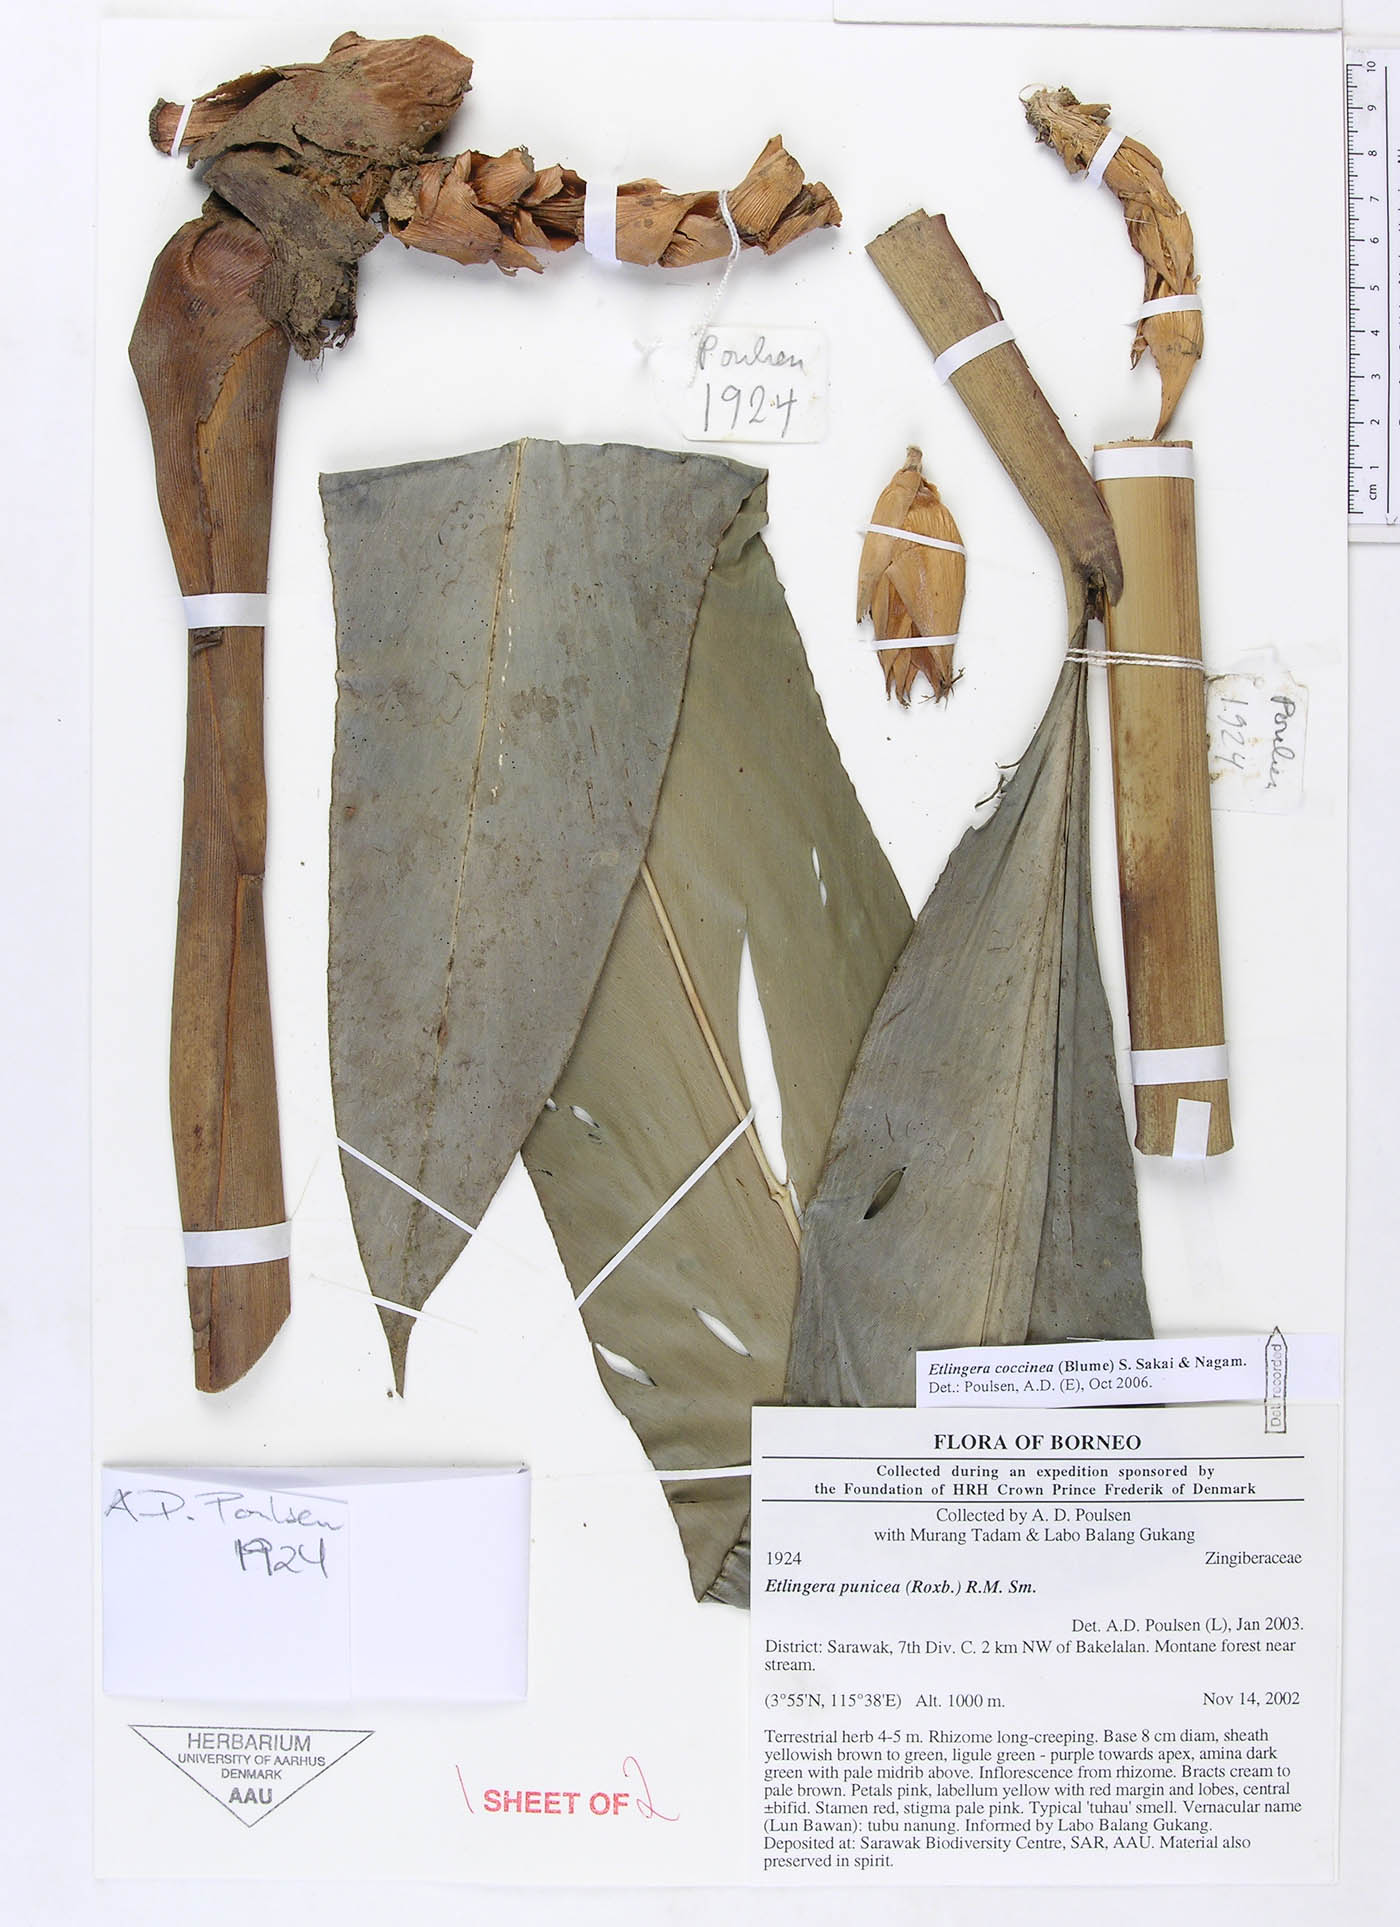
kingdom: Plantae
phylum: Tracheophyta
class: Liliopsida
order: Zingiberales
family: Zingiberaceae
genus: Etlingera
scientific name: Etlingera coccinea
